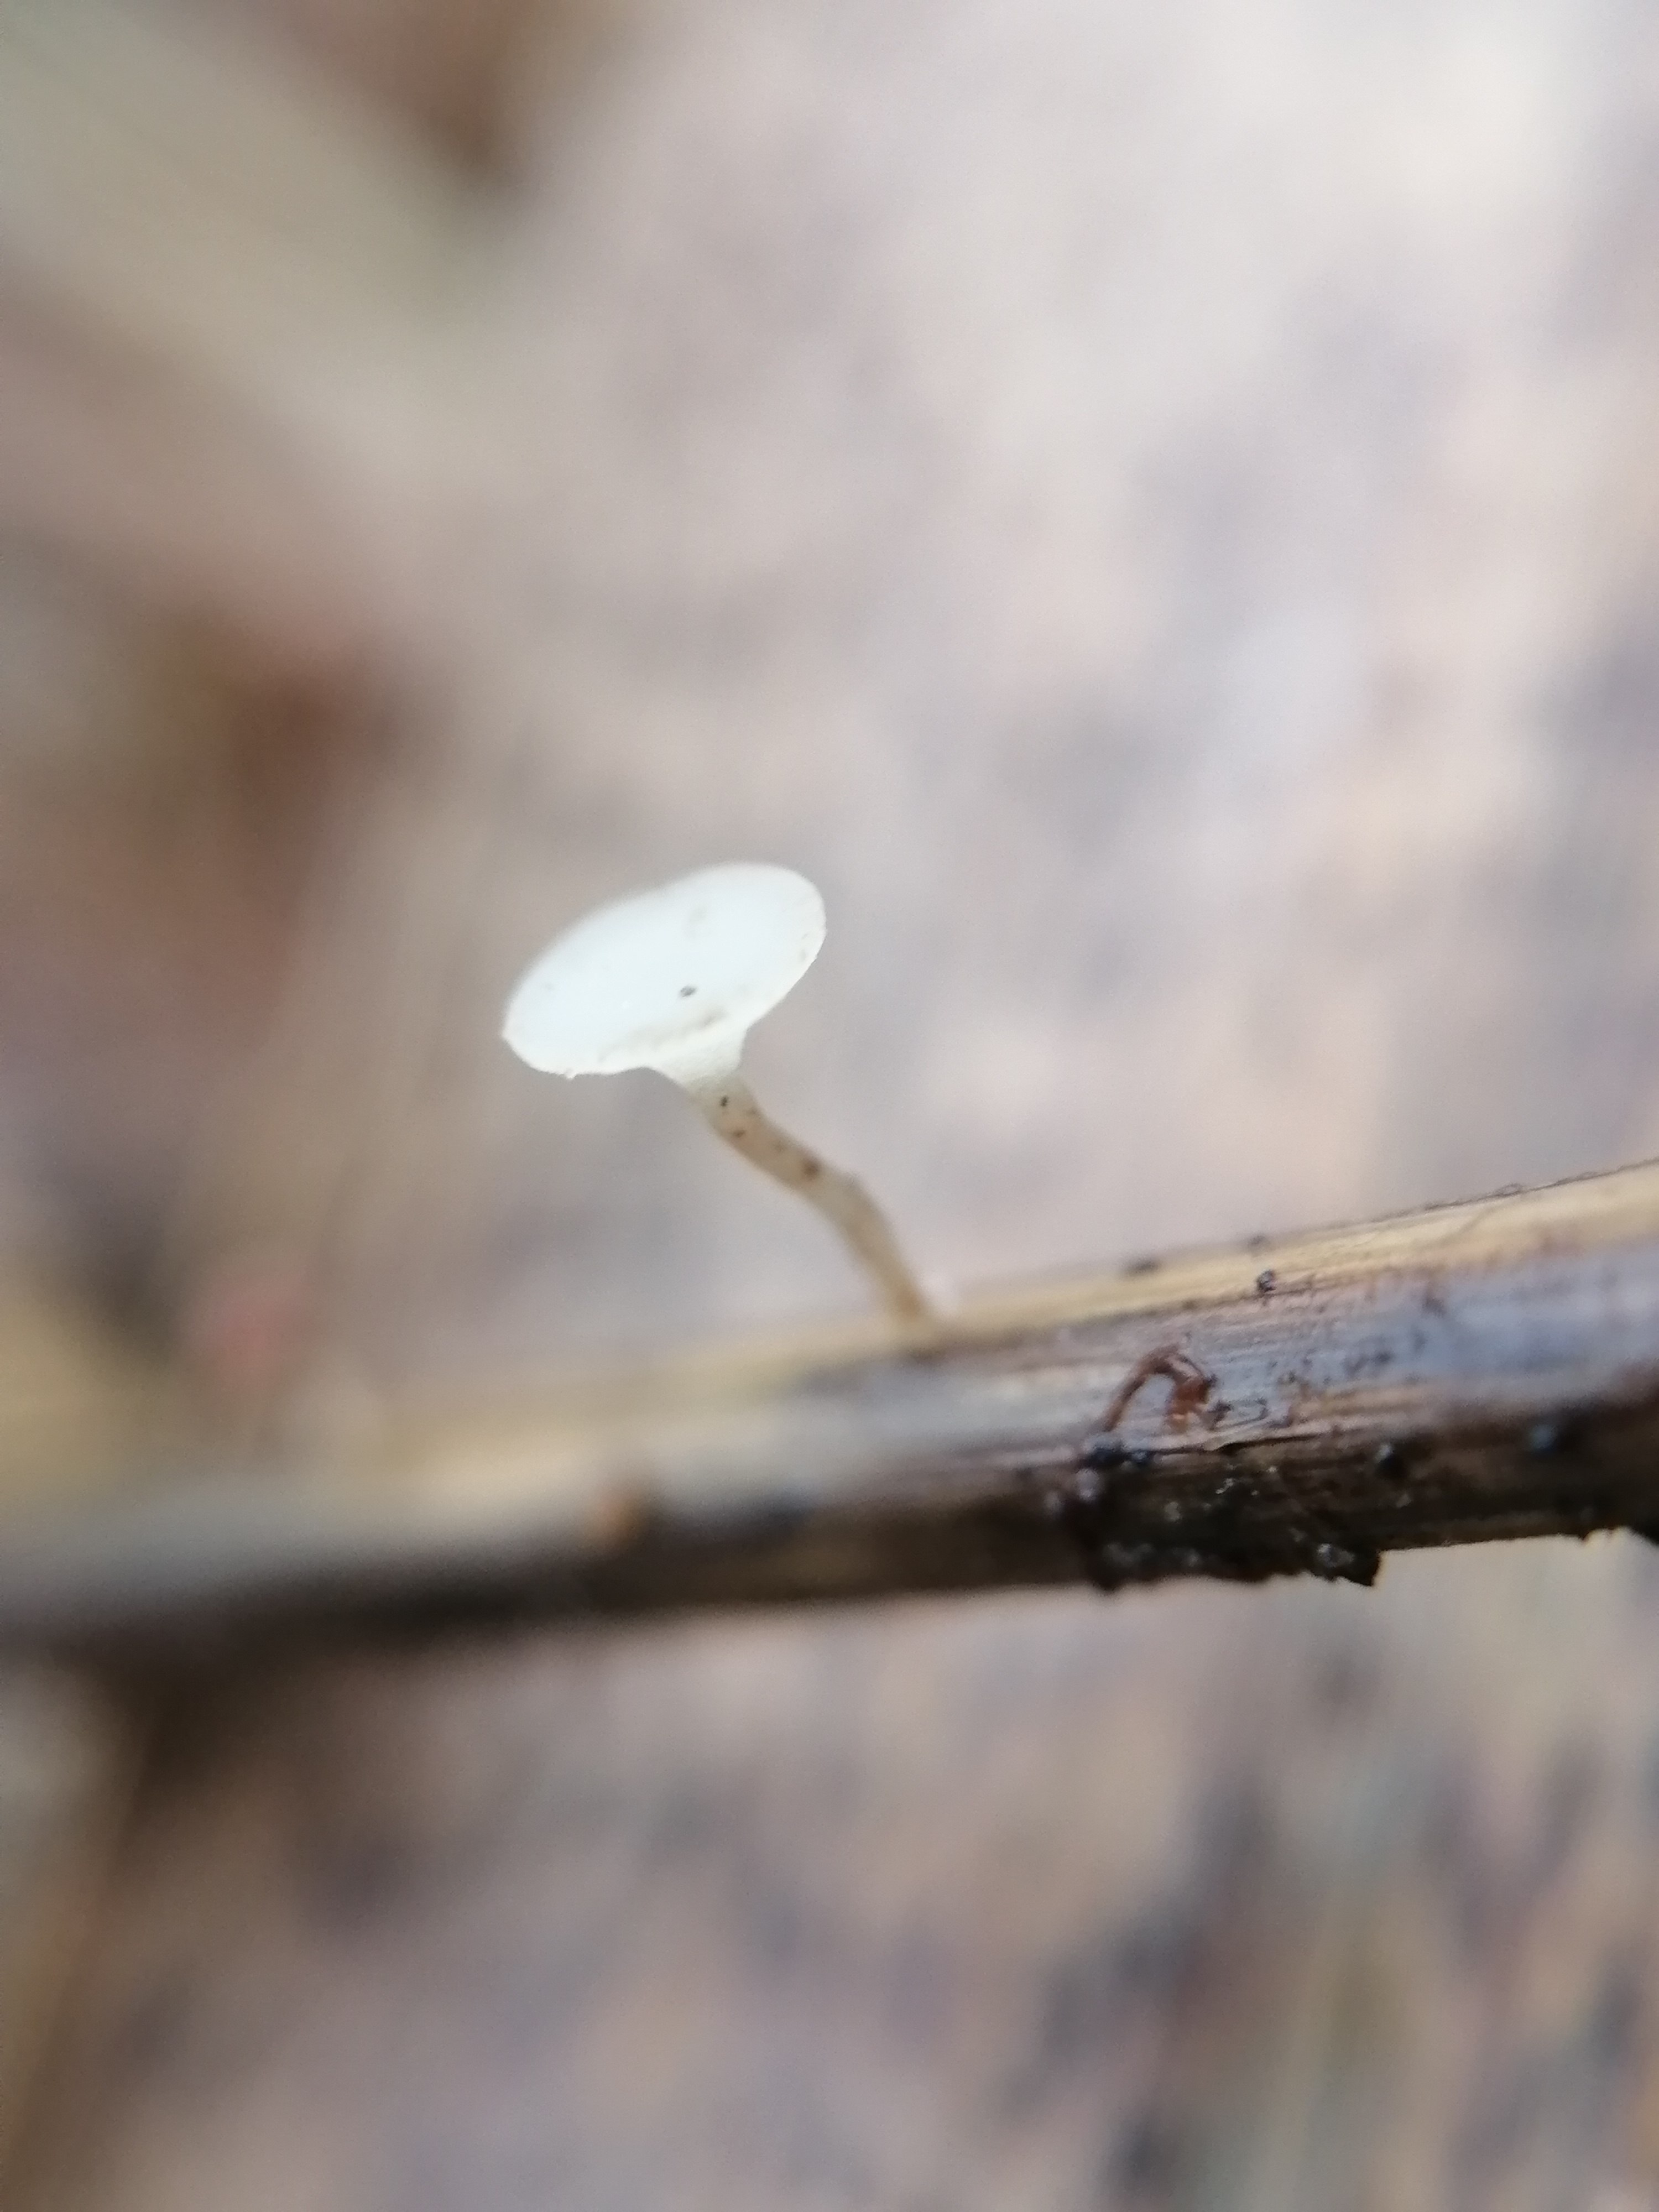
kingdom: Fungi
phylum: Ascomycota
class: Leotiomycetes
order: Helotiales
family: Helotiaceae
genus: Hymenoscyphus
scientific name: Hymenoscyphus
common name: stilkskive
